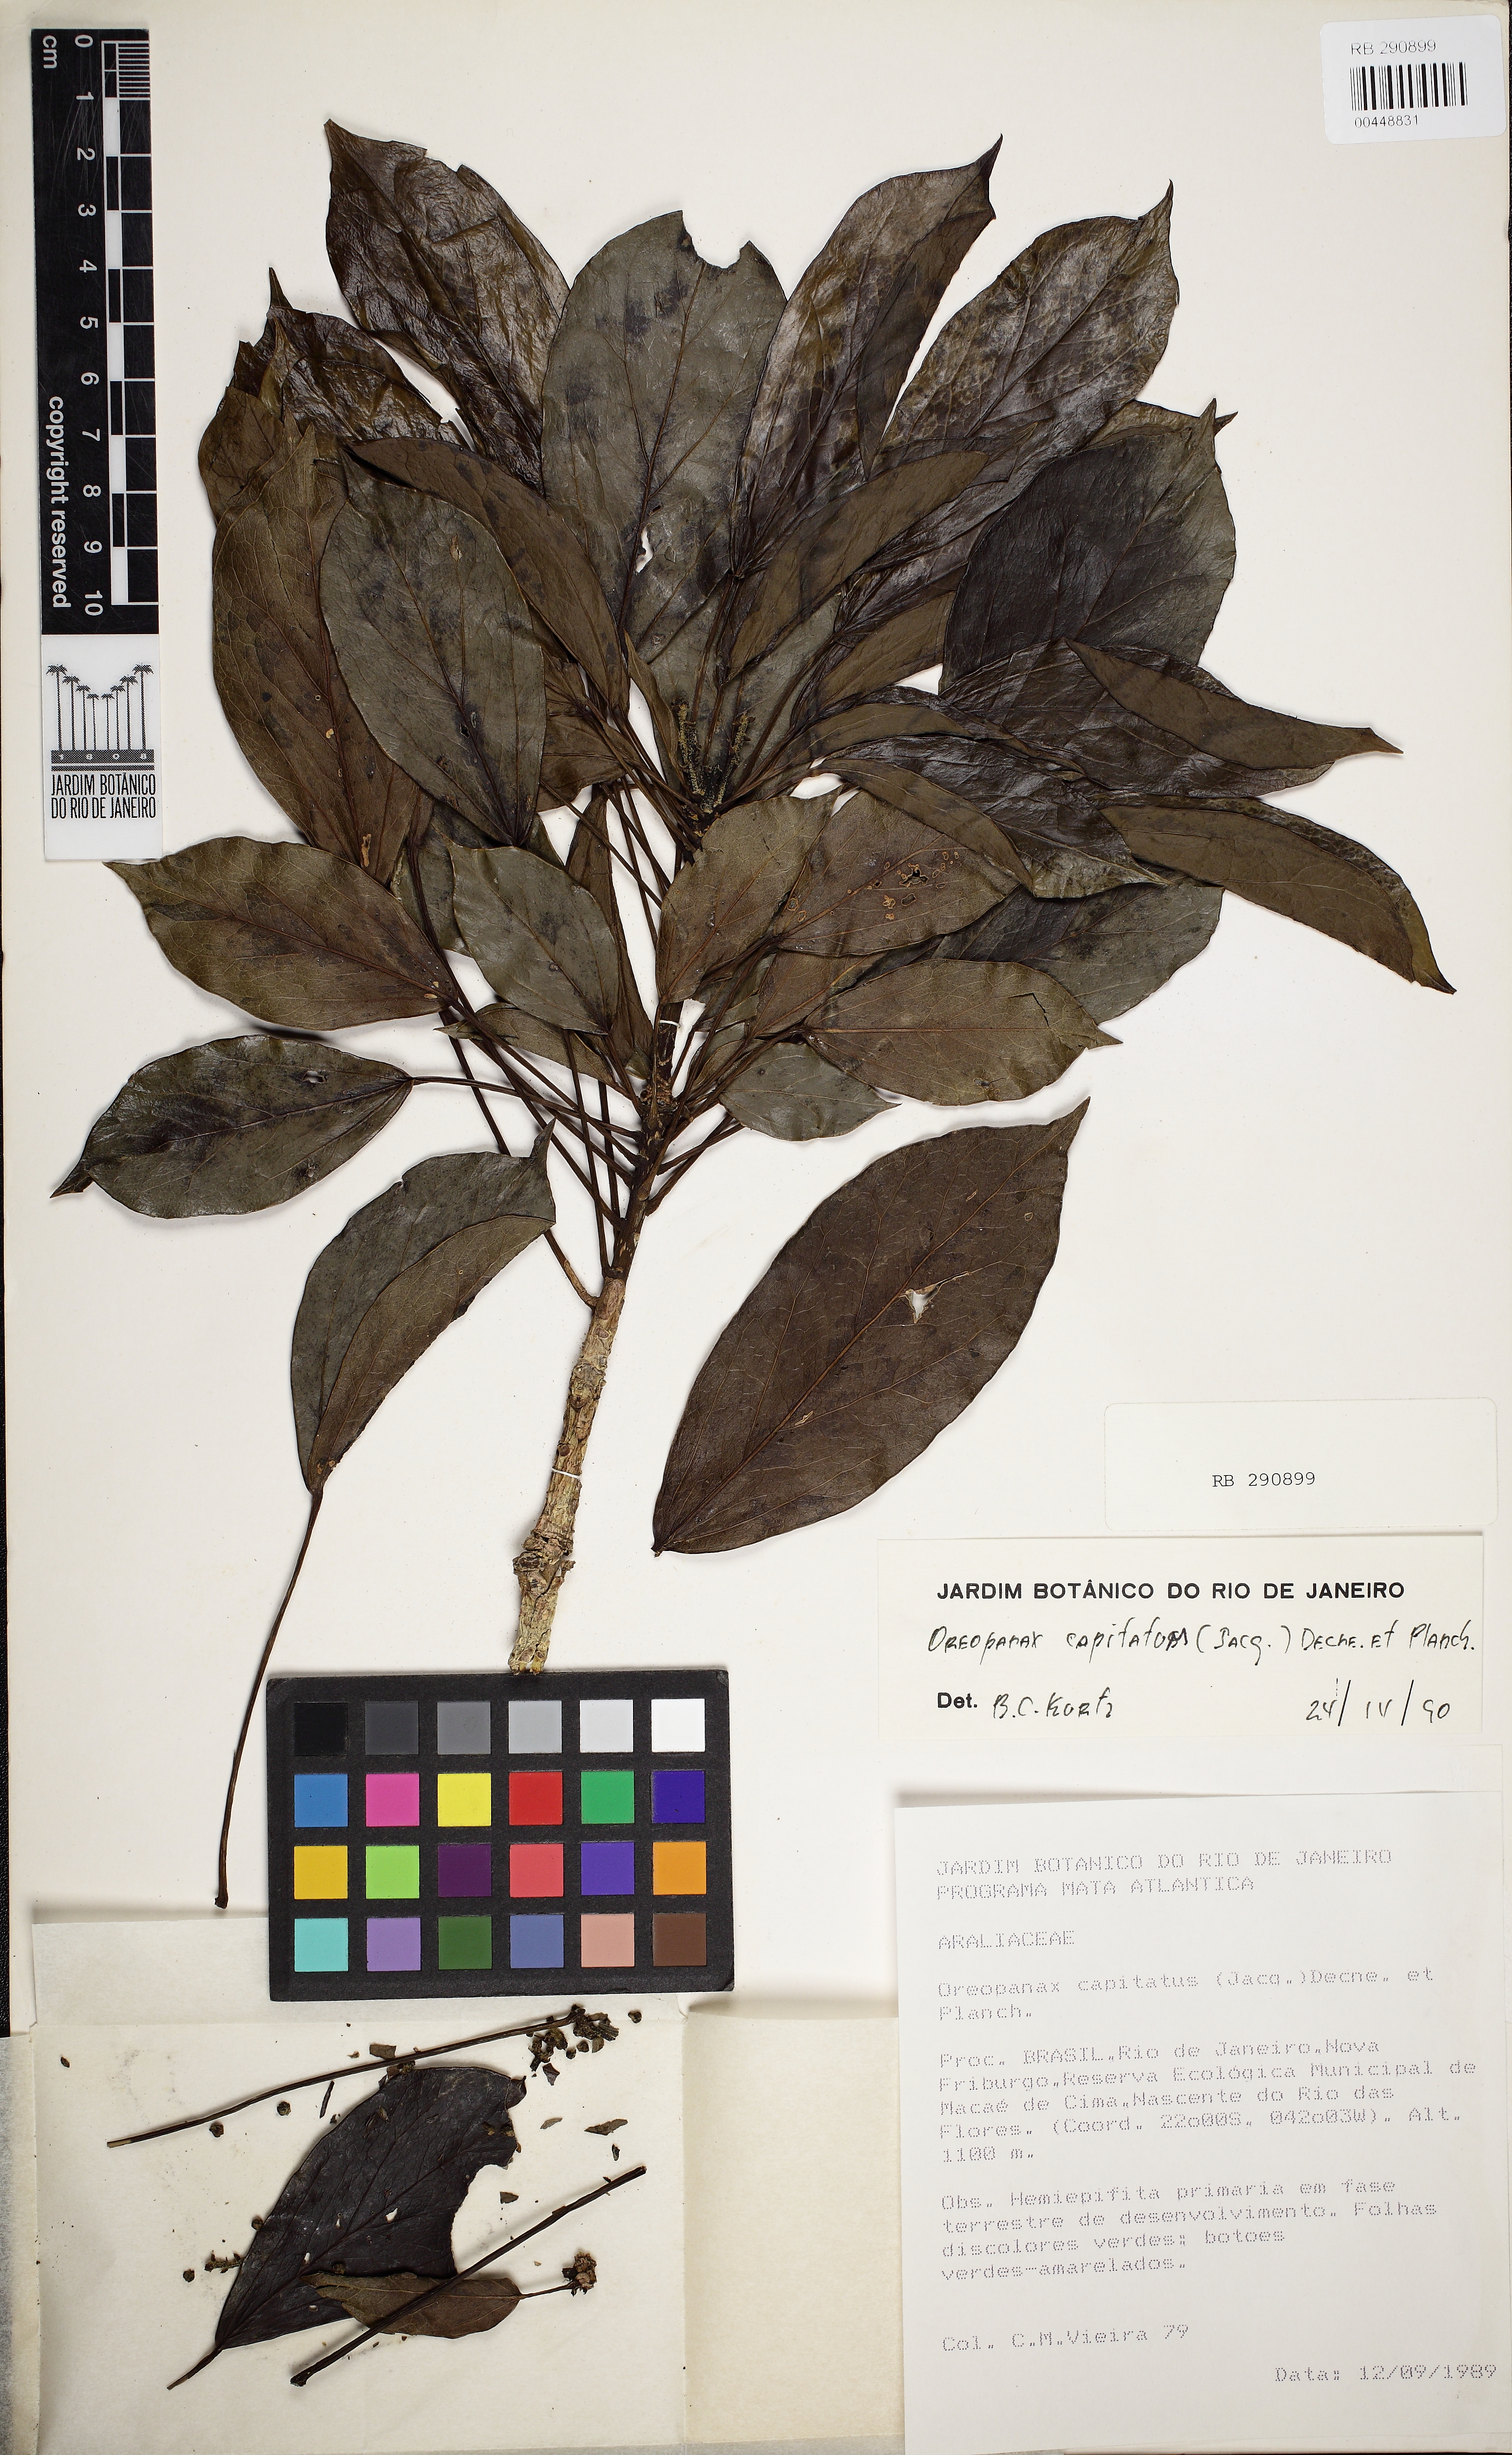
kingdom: Plantae
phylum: Tracheophyta
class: Magnoliopsida
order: Apiales
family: Araliaceae
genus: Oreopanax
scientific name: Oreopanax capitatus
